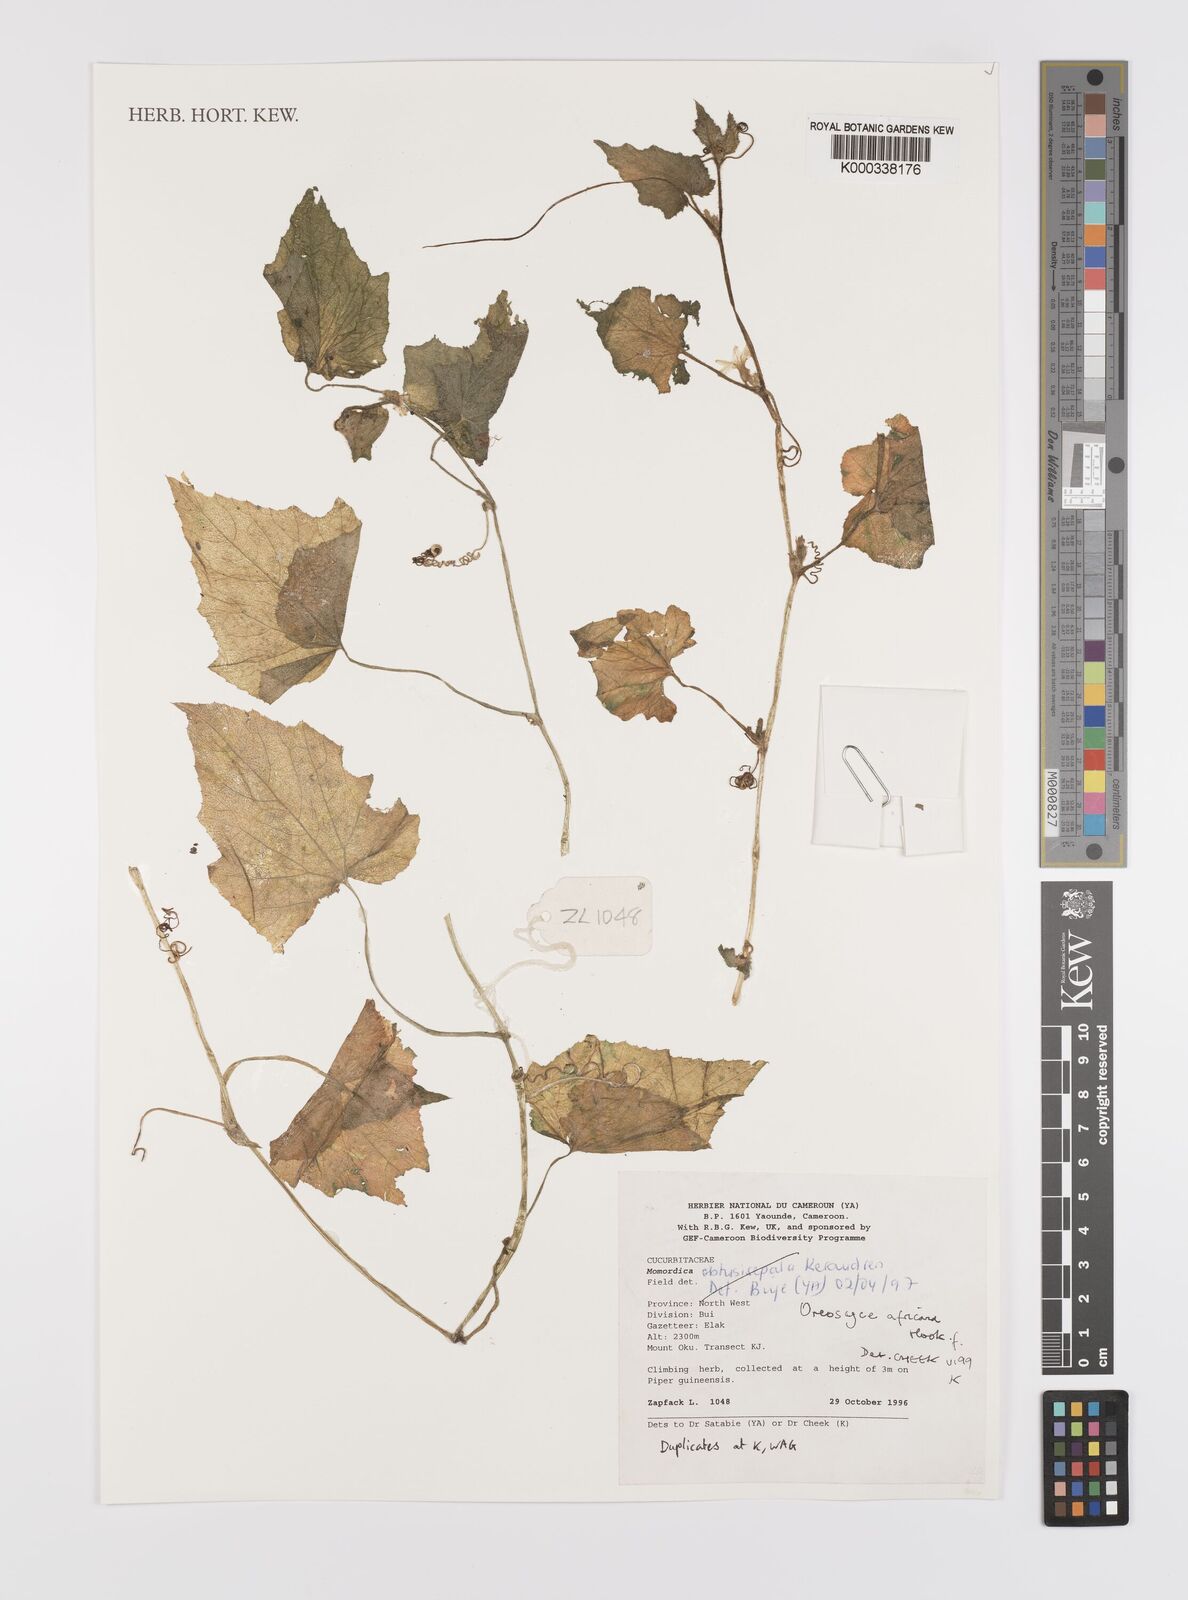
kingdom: Plantae
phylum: Tracheophyta
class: Magnoliopsida
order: Cucurbitales
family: Cucurbitaceae
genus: Cucumis
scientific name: Cucumis oreosyce
